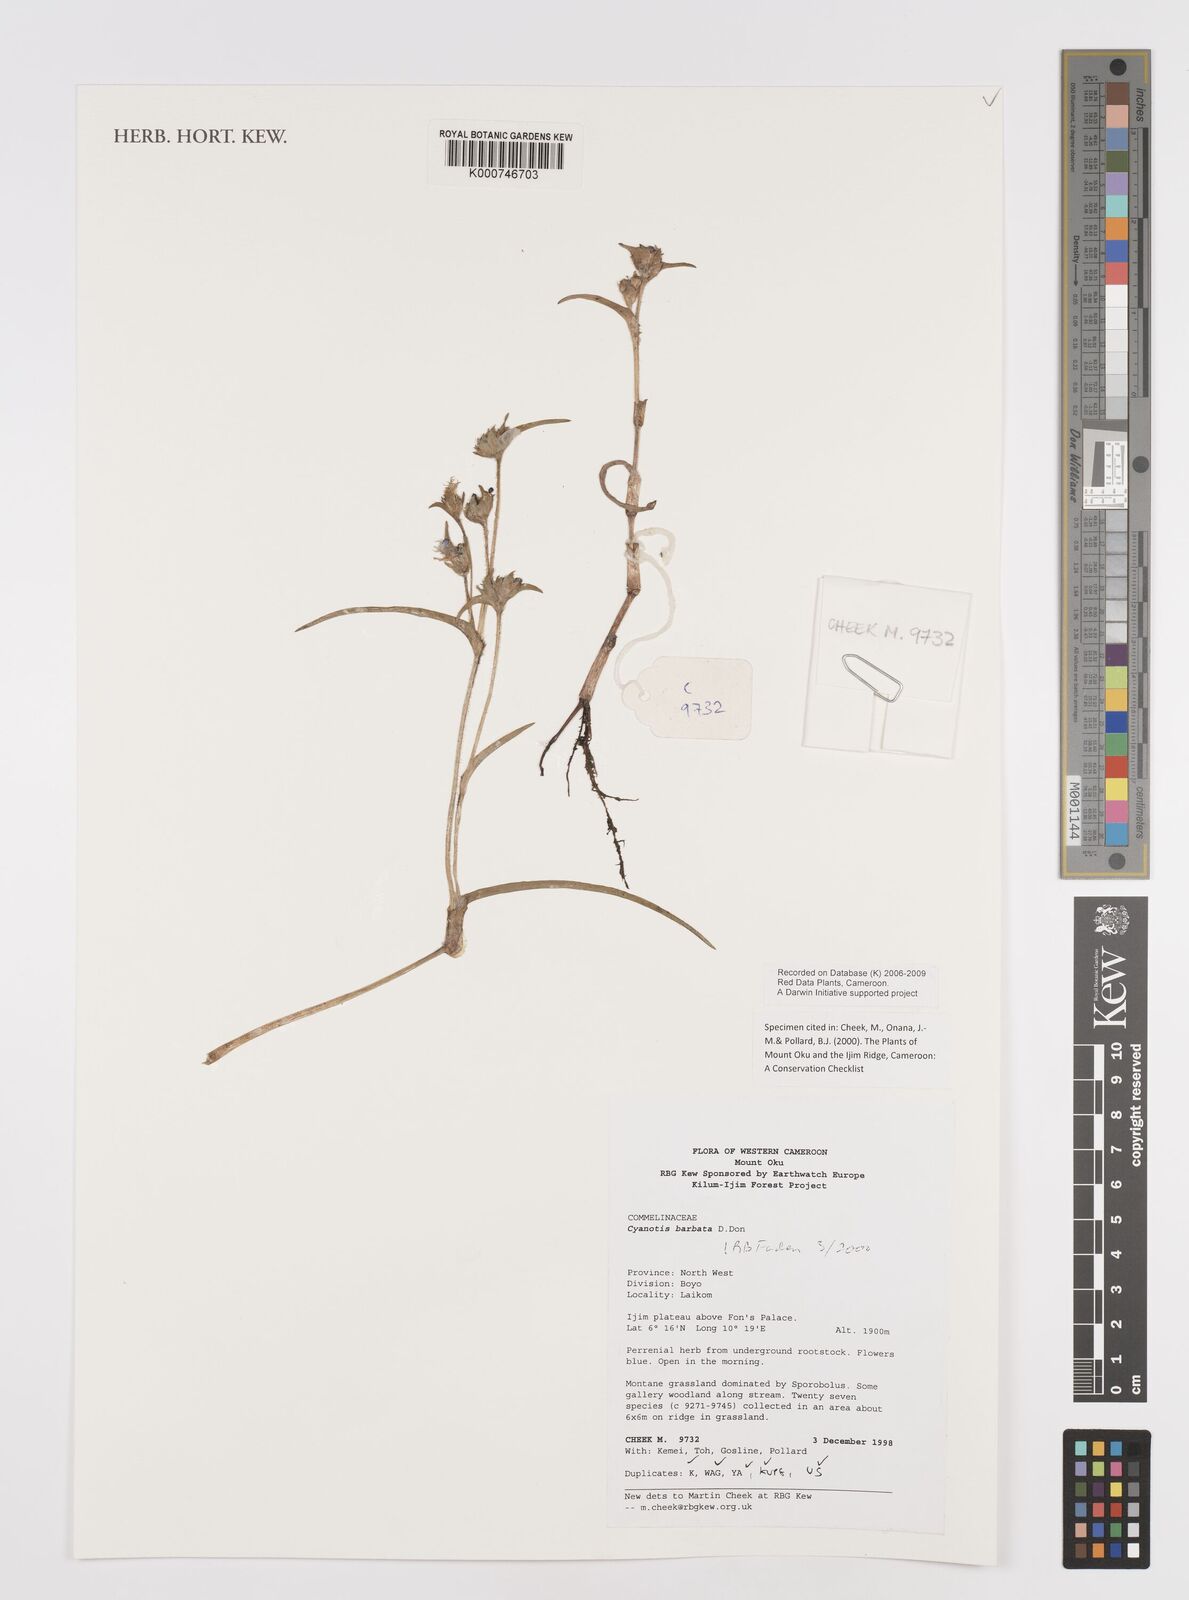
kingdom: Plantae
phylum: Tracheophyta
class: Liliopsida
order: Commelinales
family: Commelinaceae
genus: Cyanotis
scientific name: Cyanotis vaga
